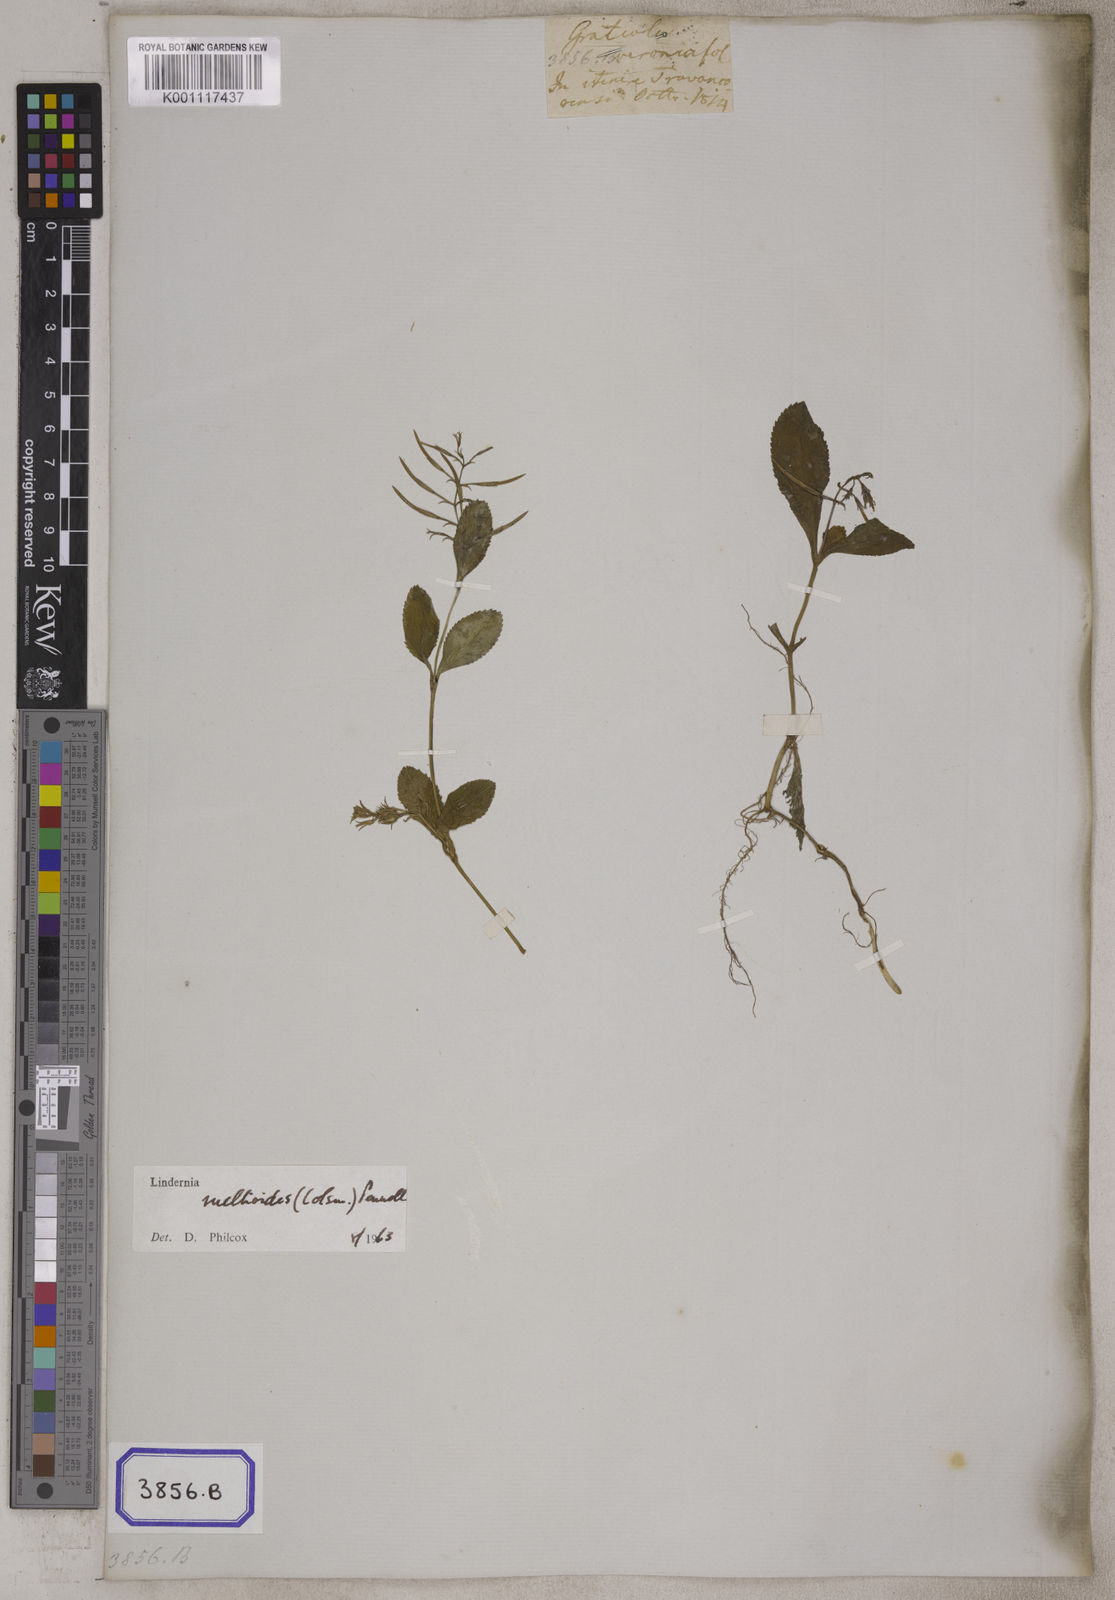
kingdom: Plantae
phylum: Tracheophyta
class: Magnoliopsida
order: Lamiales
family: Linderniaceae
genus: Bonnaya
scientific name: Bonnaya ruellioides
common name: Duckbill pimpernel
